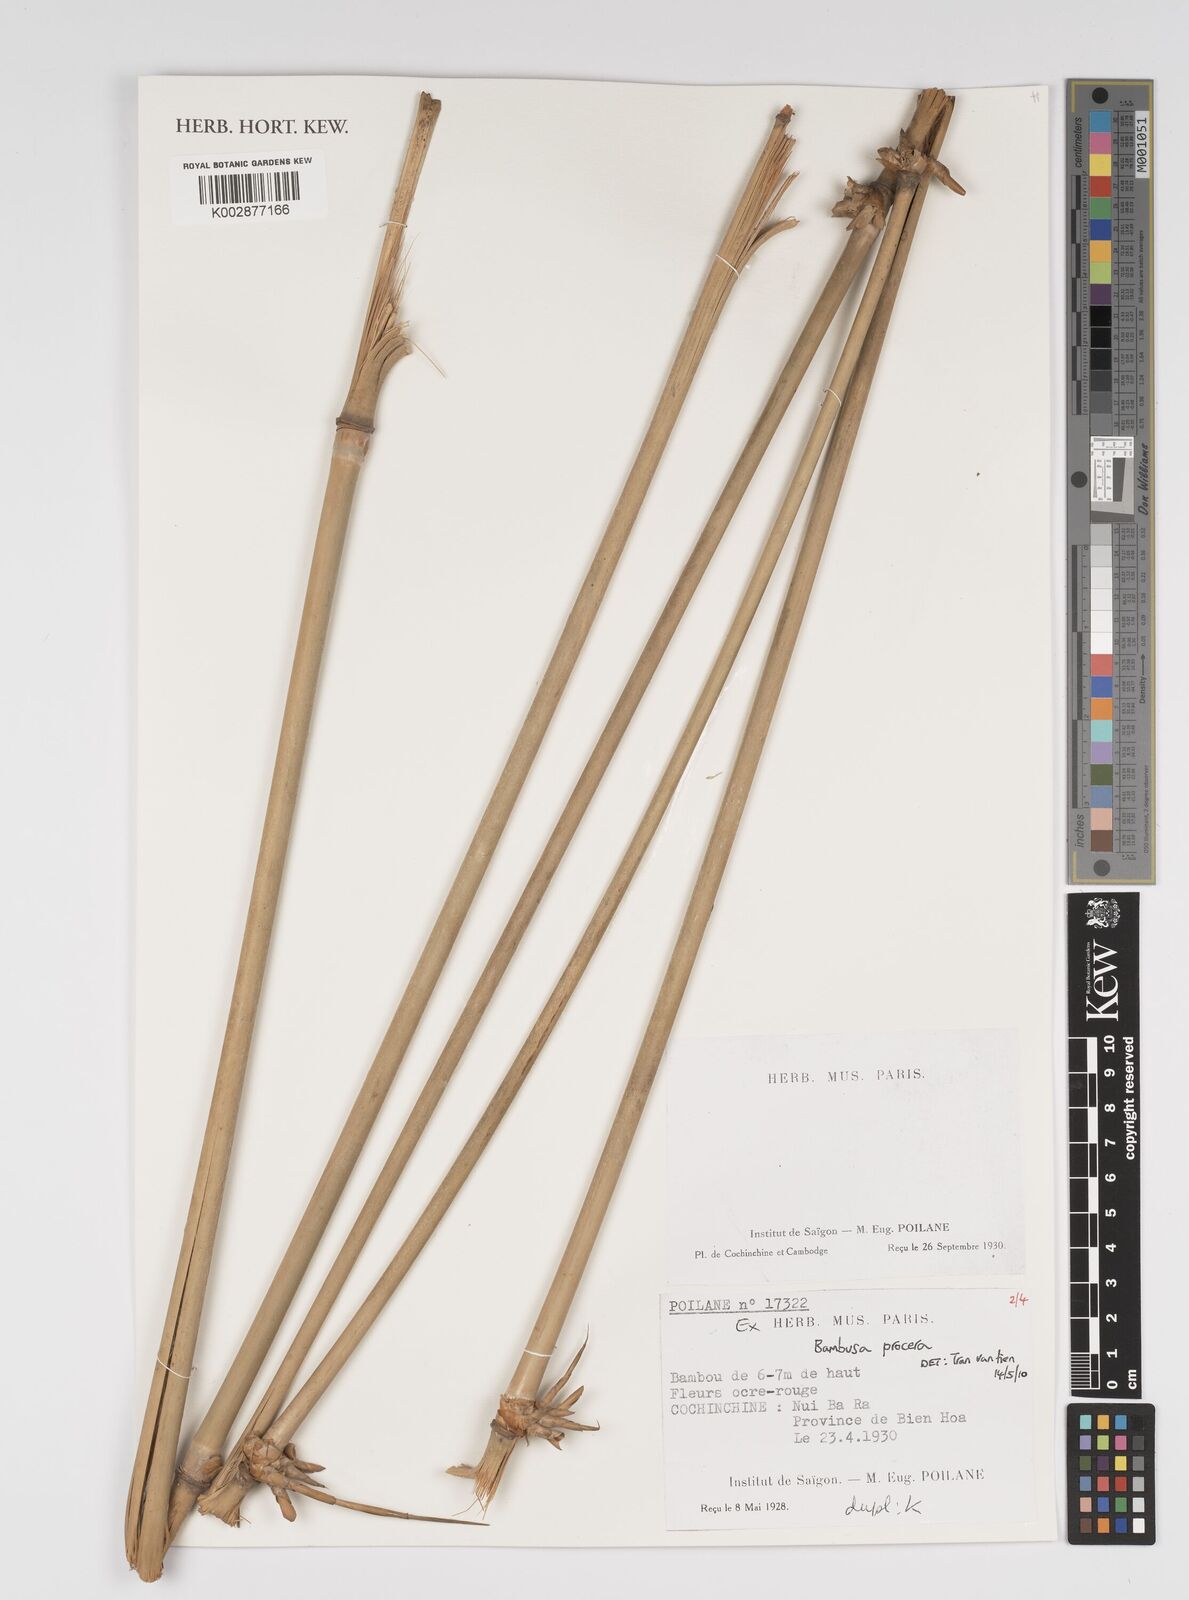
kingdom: Plantae
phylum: Tracheophyta
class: Liliopsida
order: Poales
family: Poaceae
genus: Bambusa
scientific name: Bambusa procera
